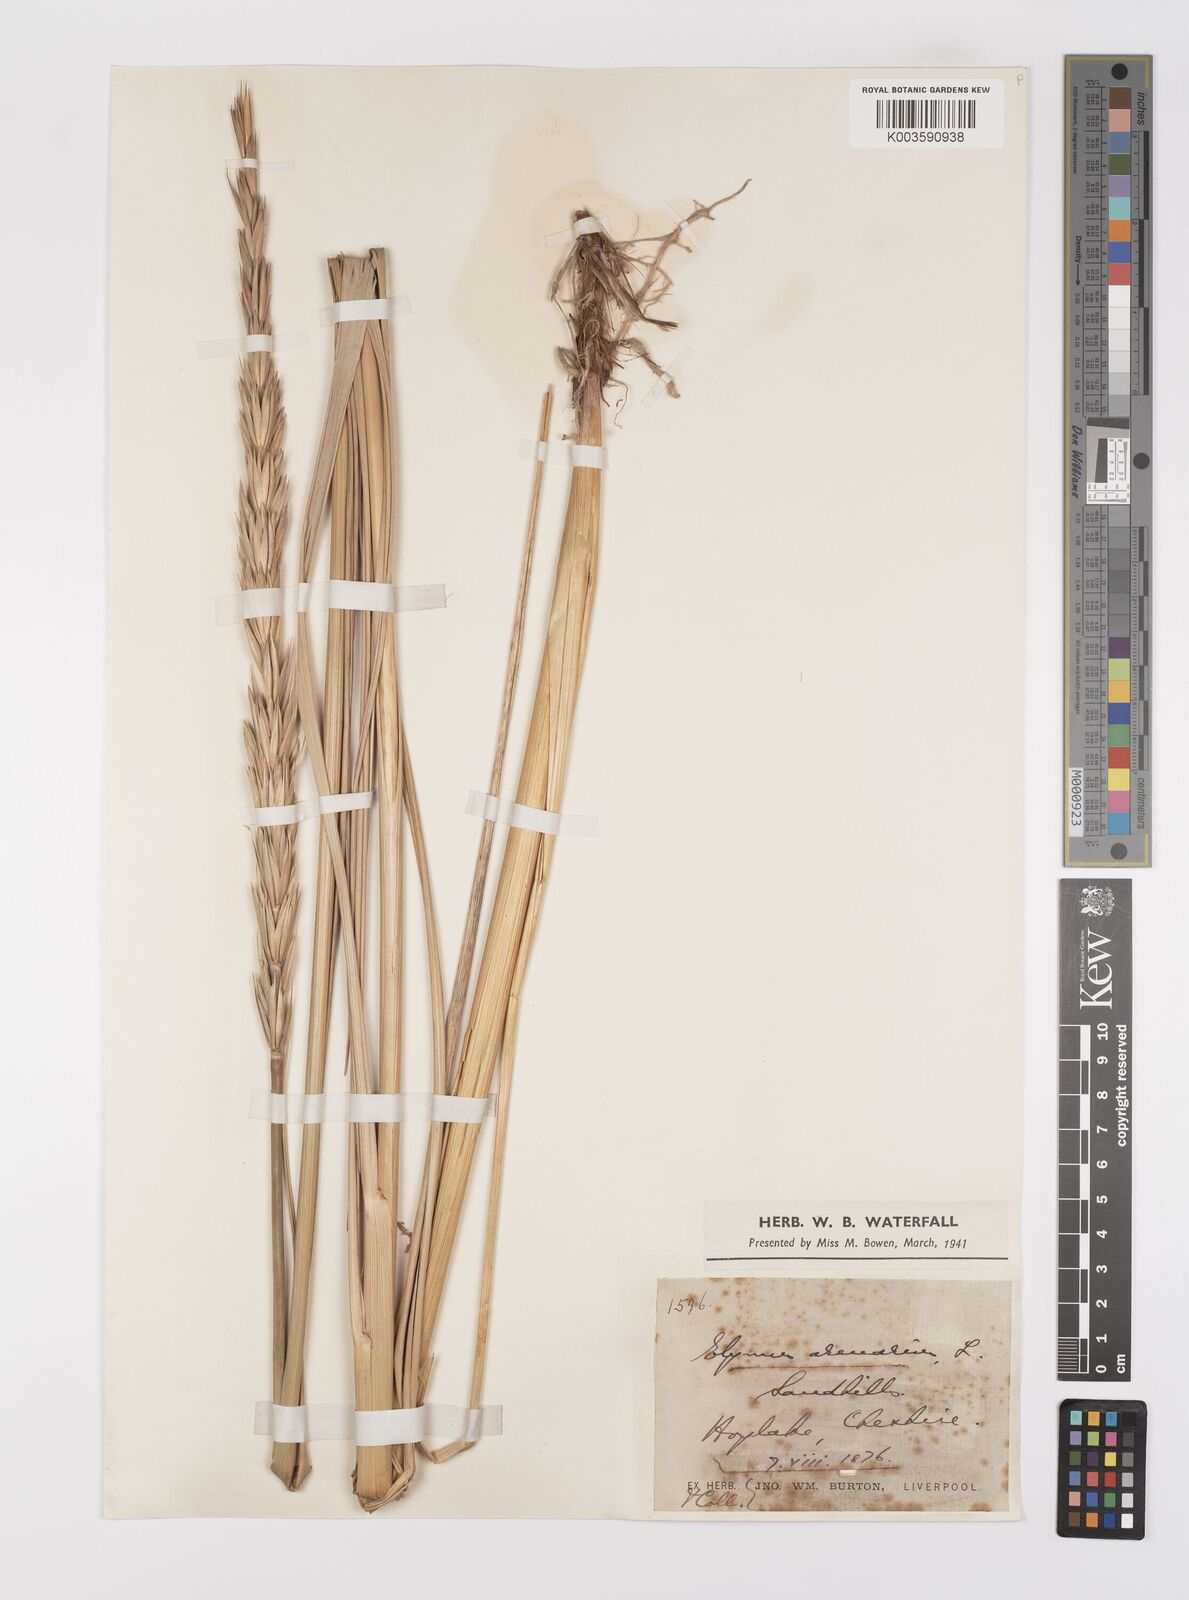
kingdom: Plantae
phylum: Tracheophyta
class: Liliopsida
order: Poales
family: Poaceae
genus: Leymus
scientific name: Leymus arenarius
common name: Lyme-grass
